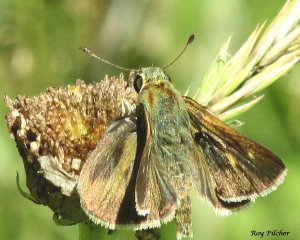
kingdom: Animalia
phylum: Arthropoda
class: Insecta
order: Lepidoptera
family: Hesperiidae
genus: Polites
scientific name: Polites egeremet
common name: Northern Broken-Dash
